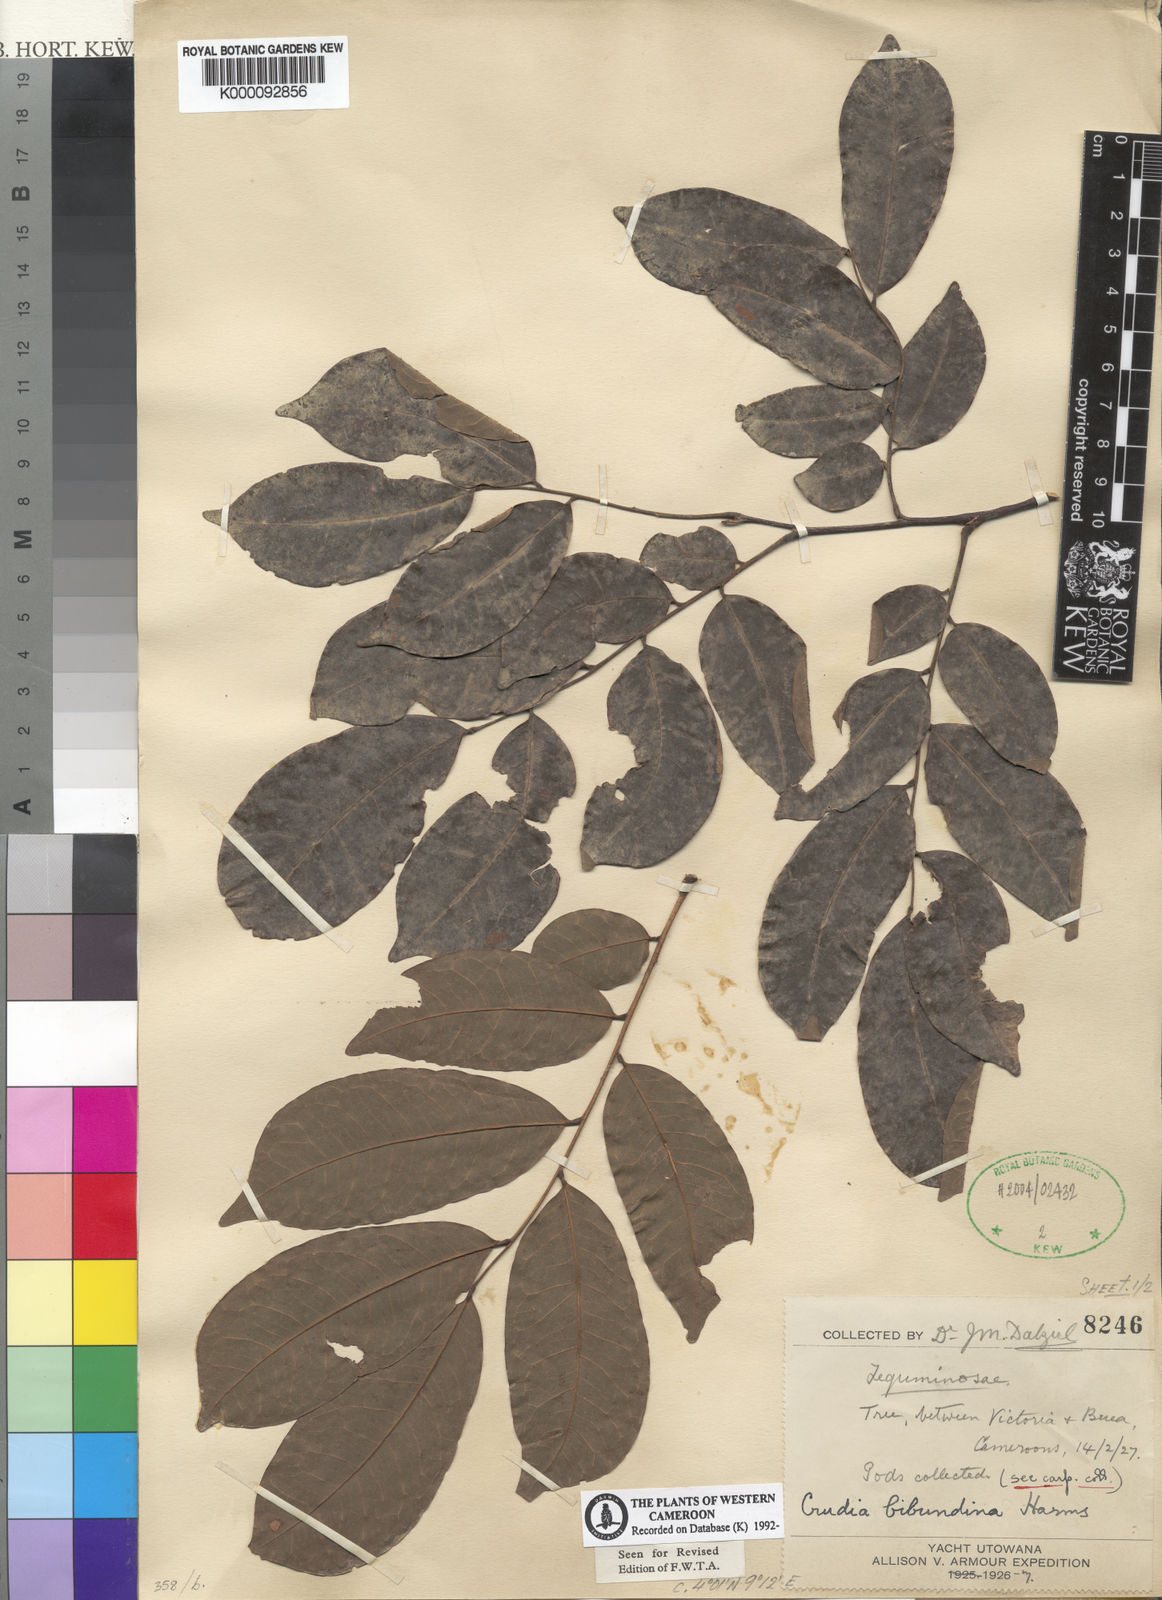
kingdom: Plantae
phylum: Tracheophyta
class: Magnoliopsida
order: Fabales
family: Fabaceae
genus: Crudia
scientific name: Crudia
